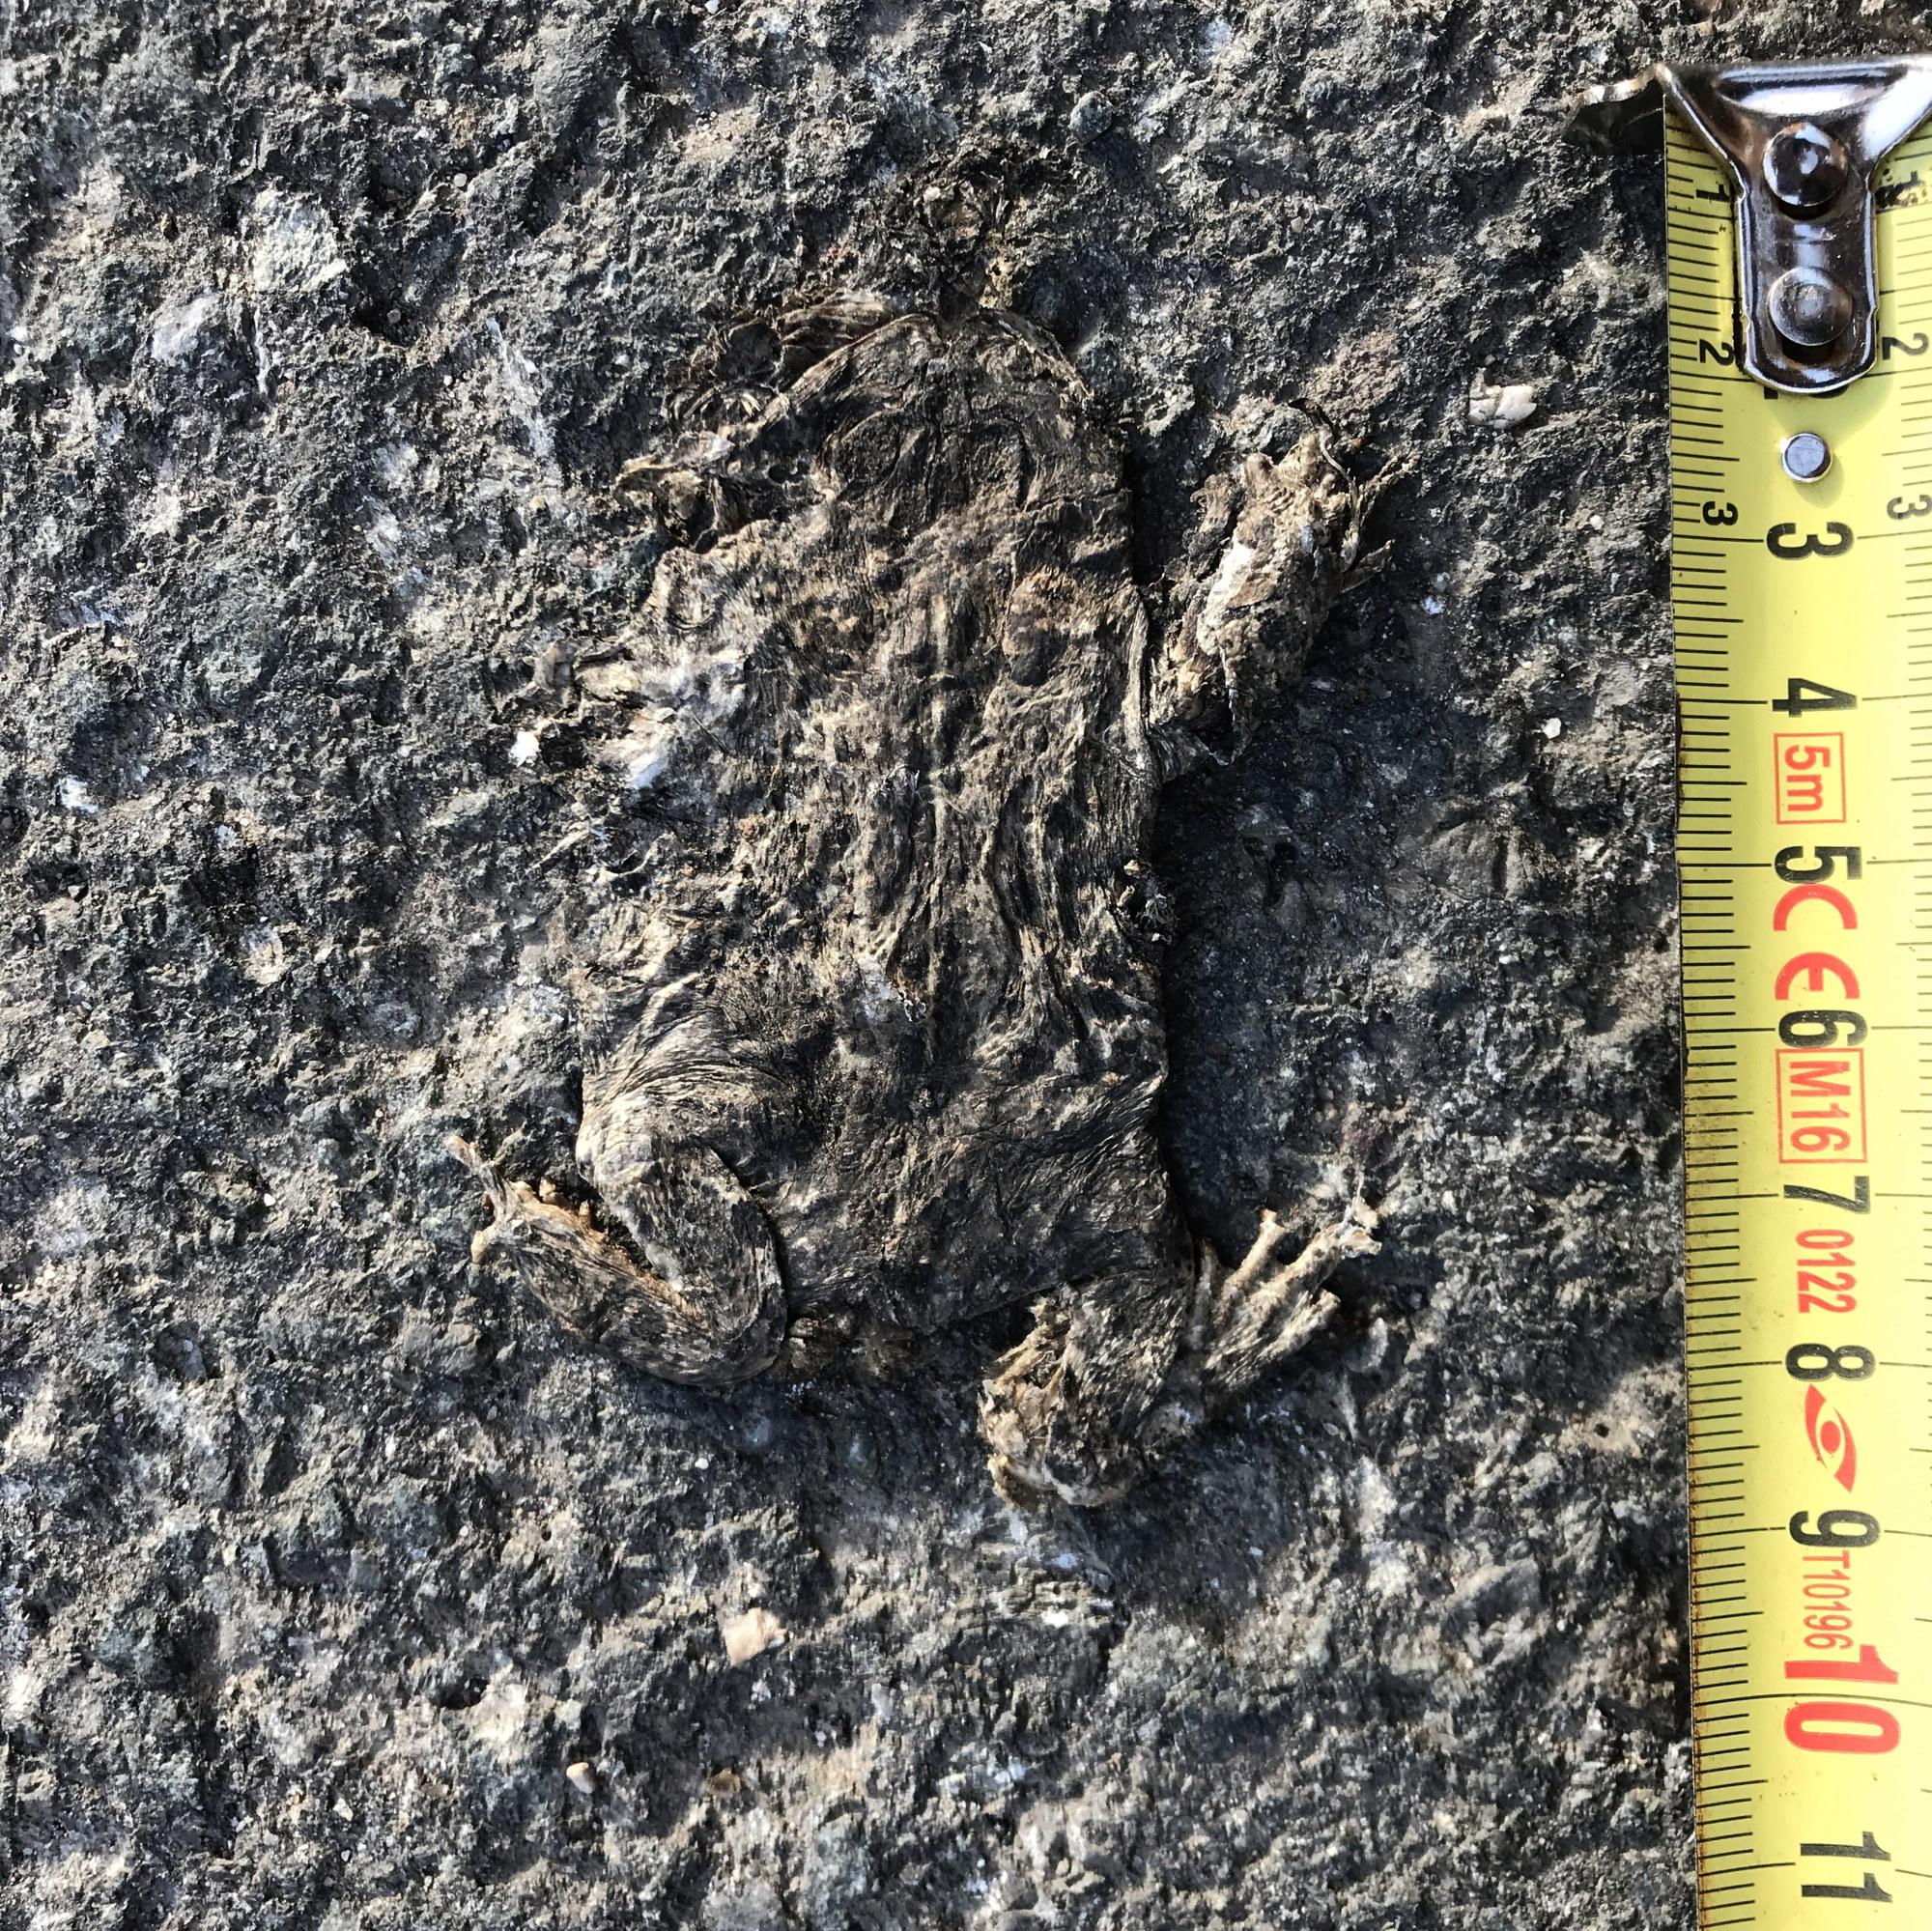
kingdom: Animalia
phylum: Chordata
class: Amphibia
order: Anura
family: Bufonidae
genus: Epidalea
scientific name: Epidalea calamita
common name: Natterjack toad
